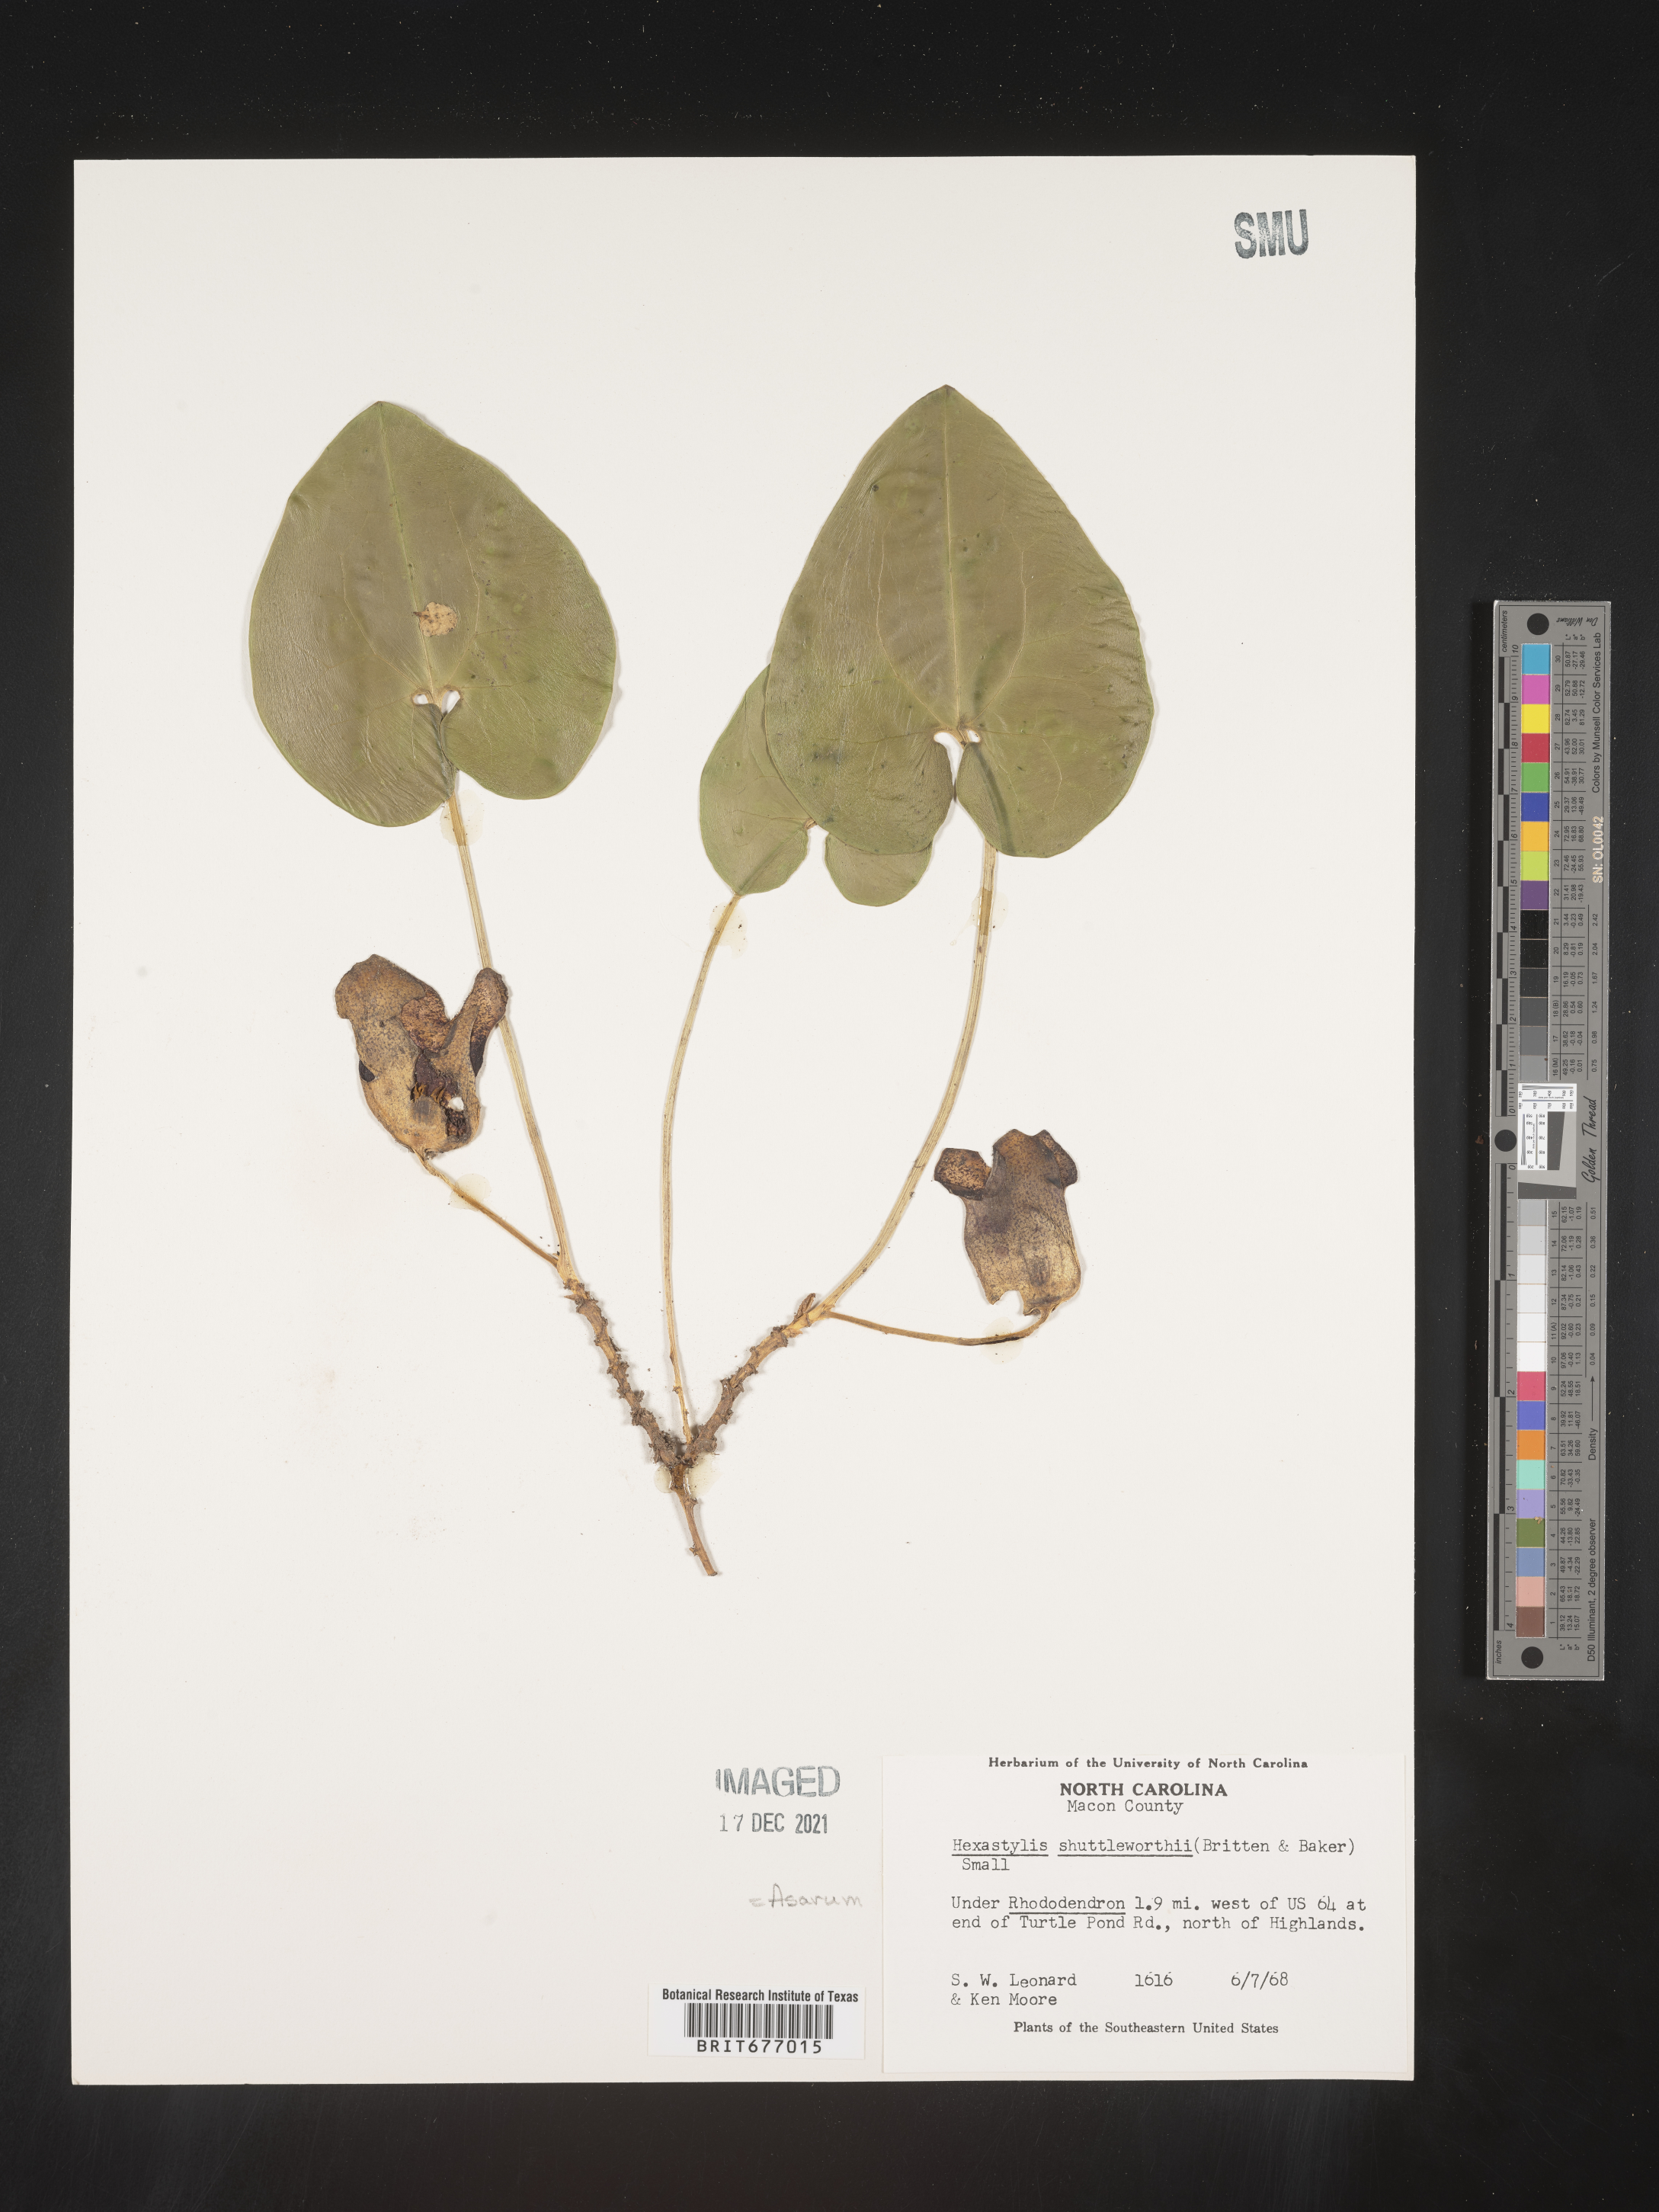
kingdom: Plantae
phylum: Tracheophyta
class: Magnoliopsida
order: Piperales
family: Aristolochiaceae
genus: Asarum
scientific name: Asarum
